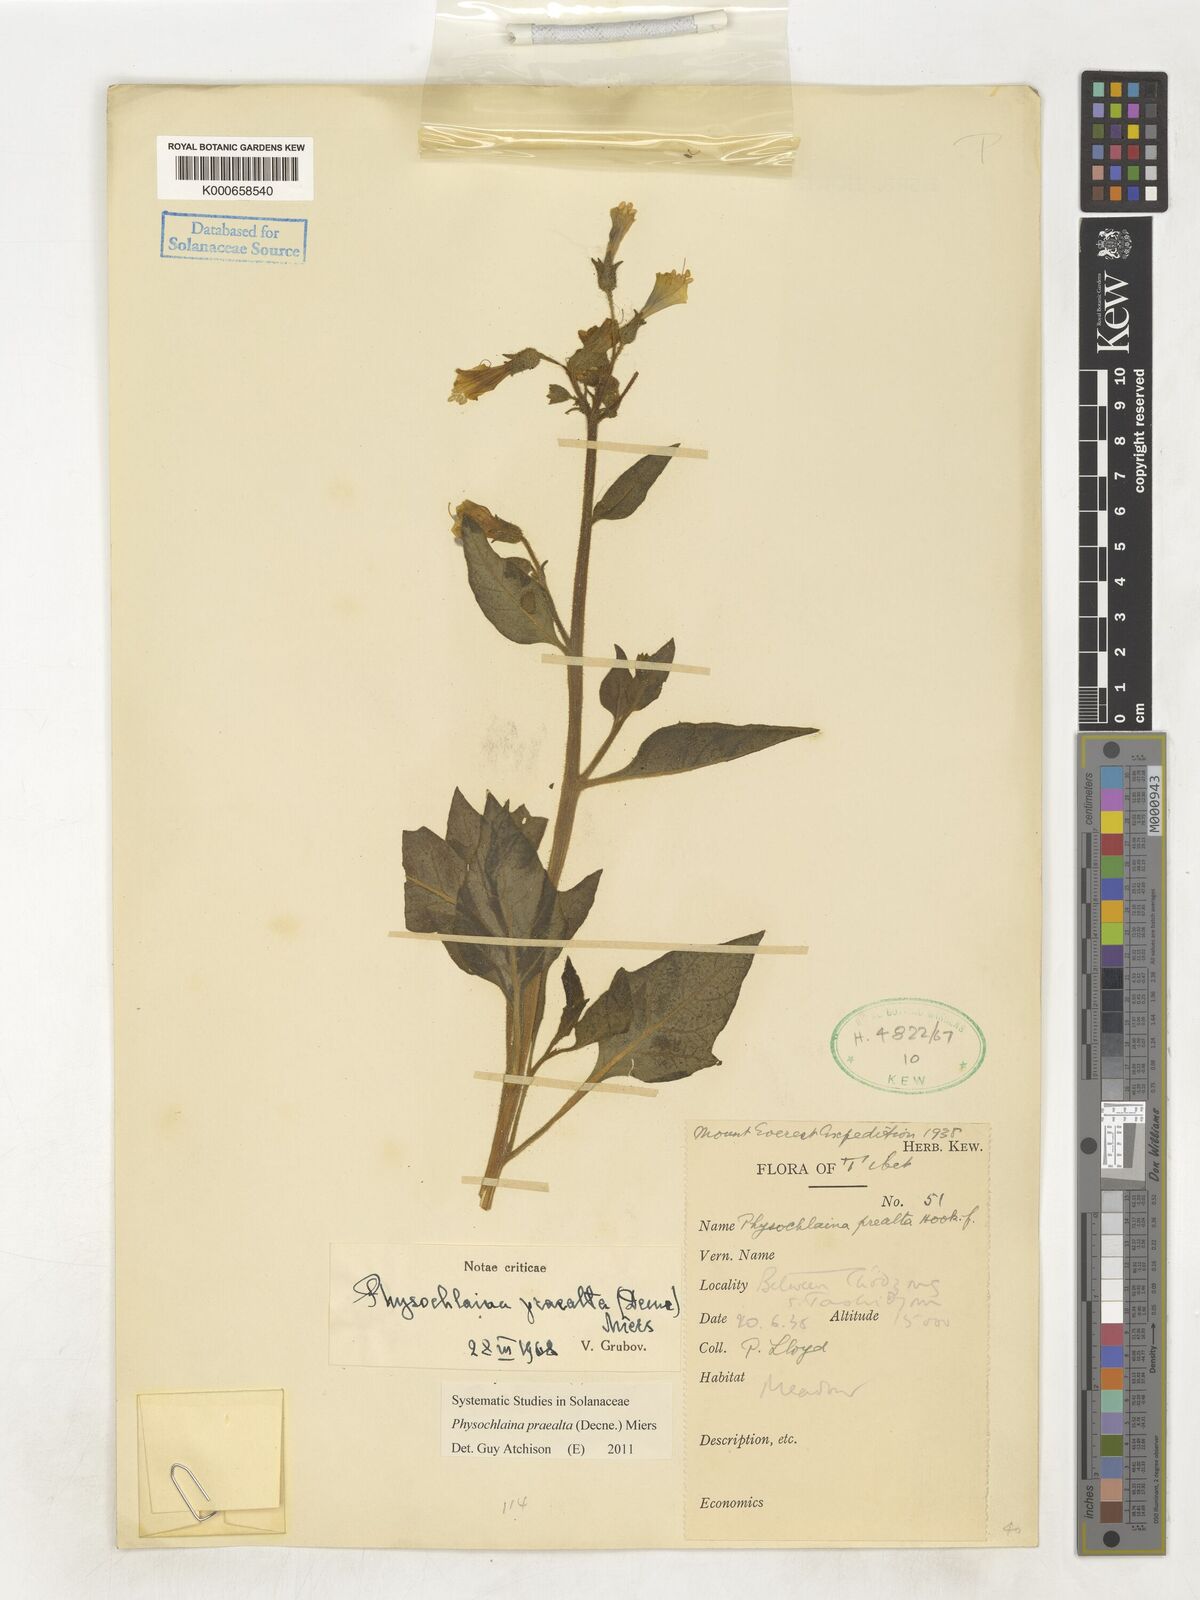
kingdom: Plantae
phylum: Tracheophyta
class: Magnoliopsida
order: Solanales
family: Solanaceae
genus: Physochlaina
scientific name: Physochlaina praealta
